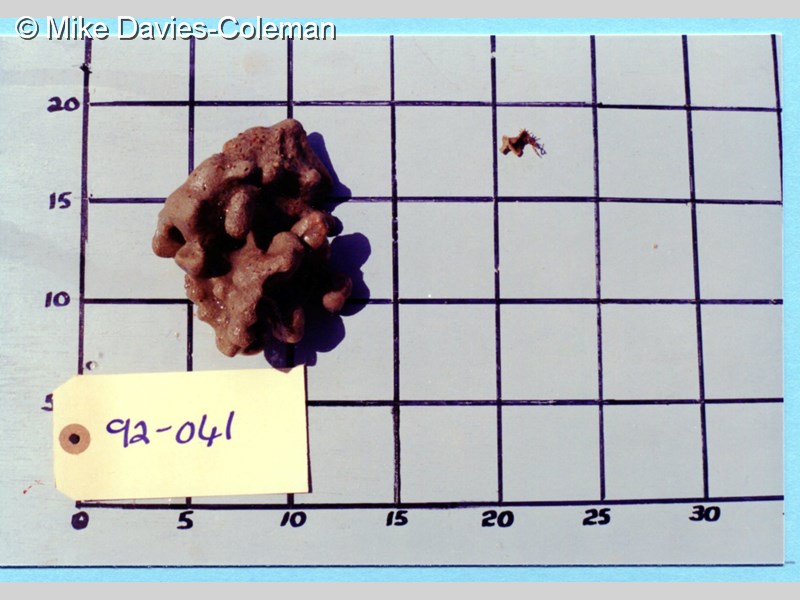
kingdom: Animalia
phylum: Chordata
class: Ascidiacea
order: Aplousobranchia
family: Polyclinidae
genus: Aplidium
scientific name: Aplidium
